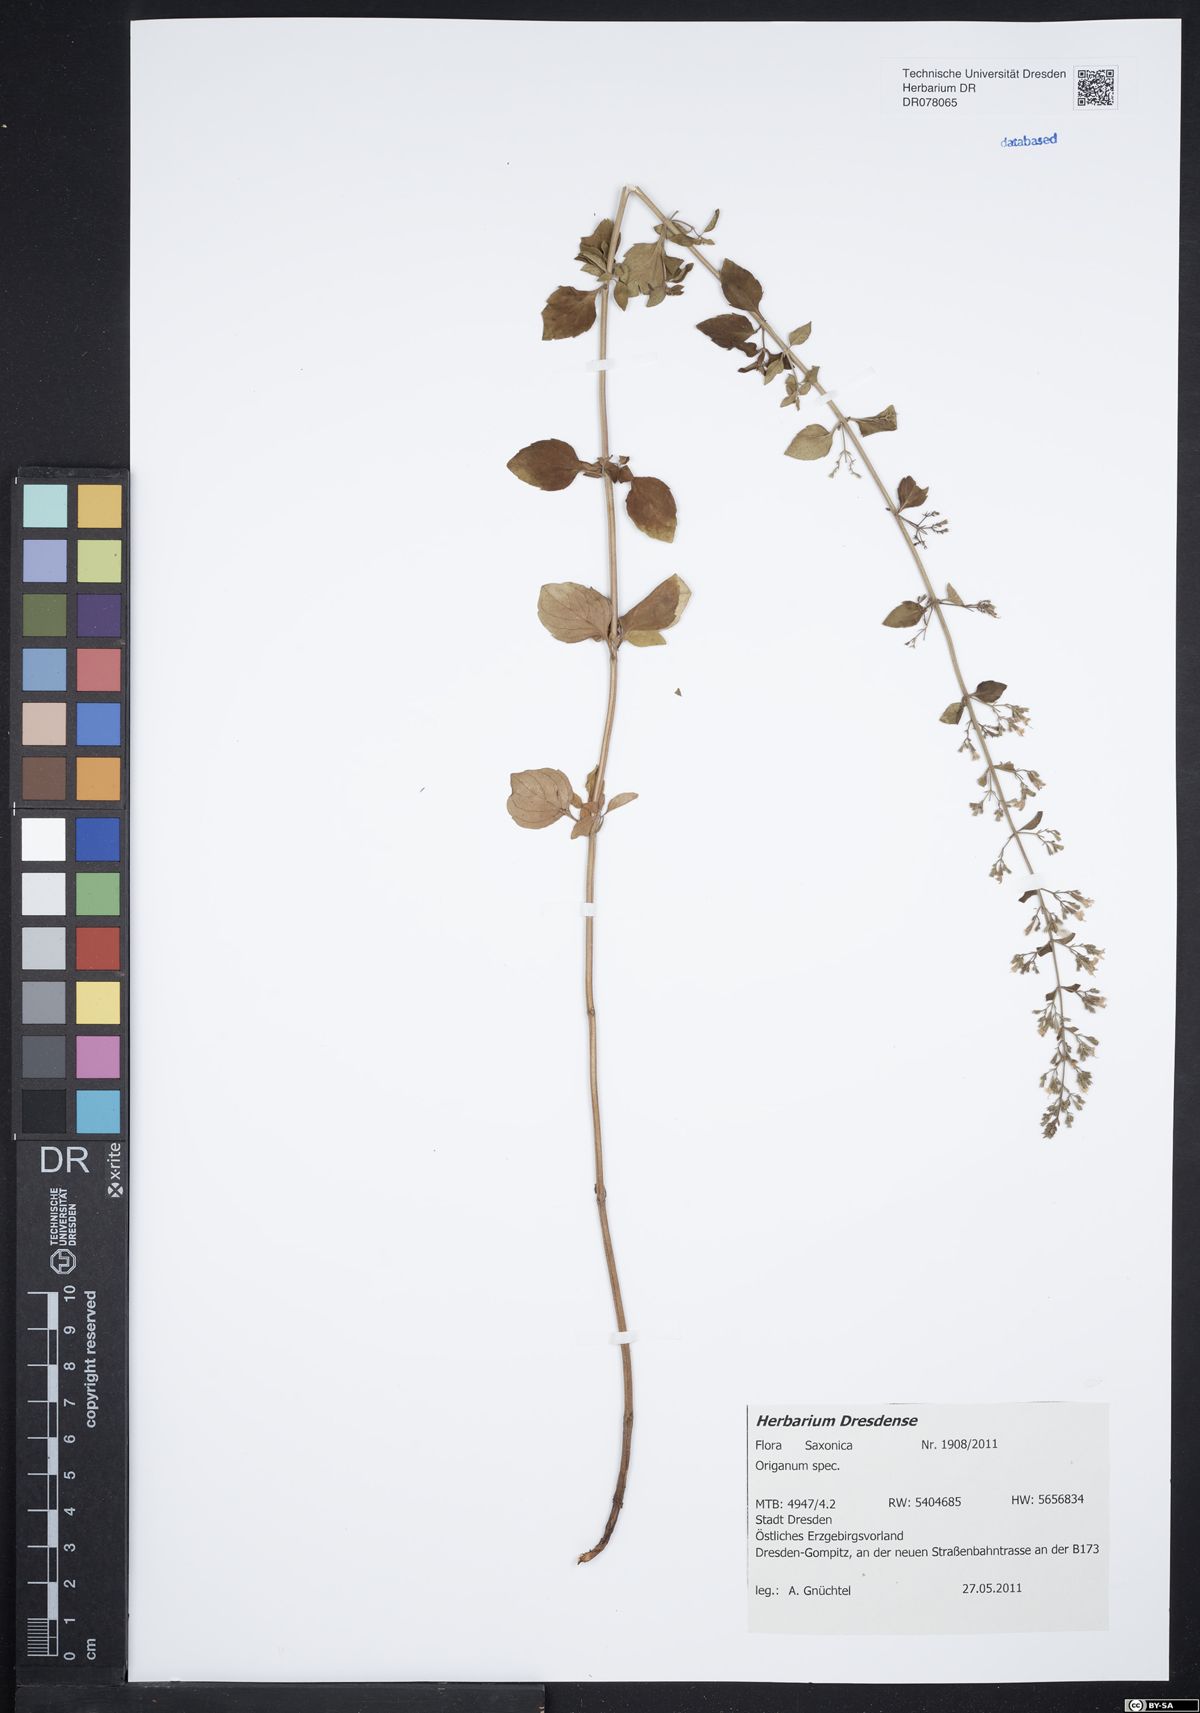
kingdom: Plantae
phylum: Tracheophyta
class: Magnoliopsida
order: Lamiales
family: Lamiaceae
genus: Origanum
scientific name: Origanum
